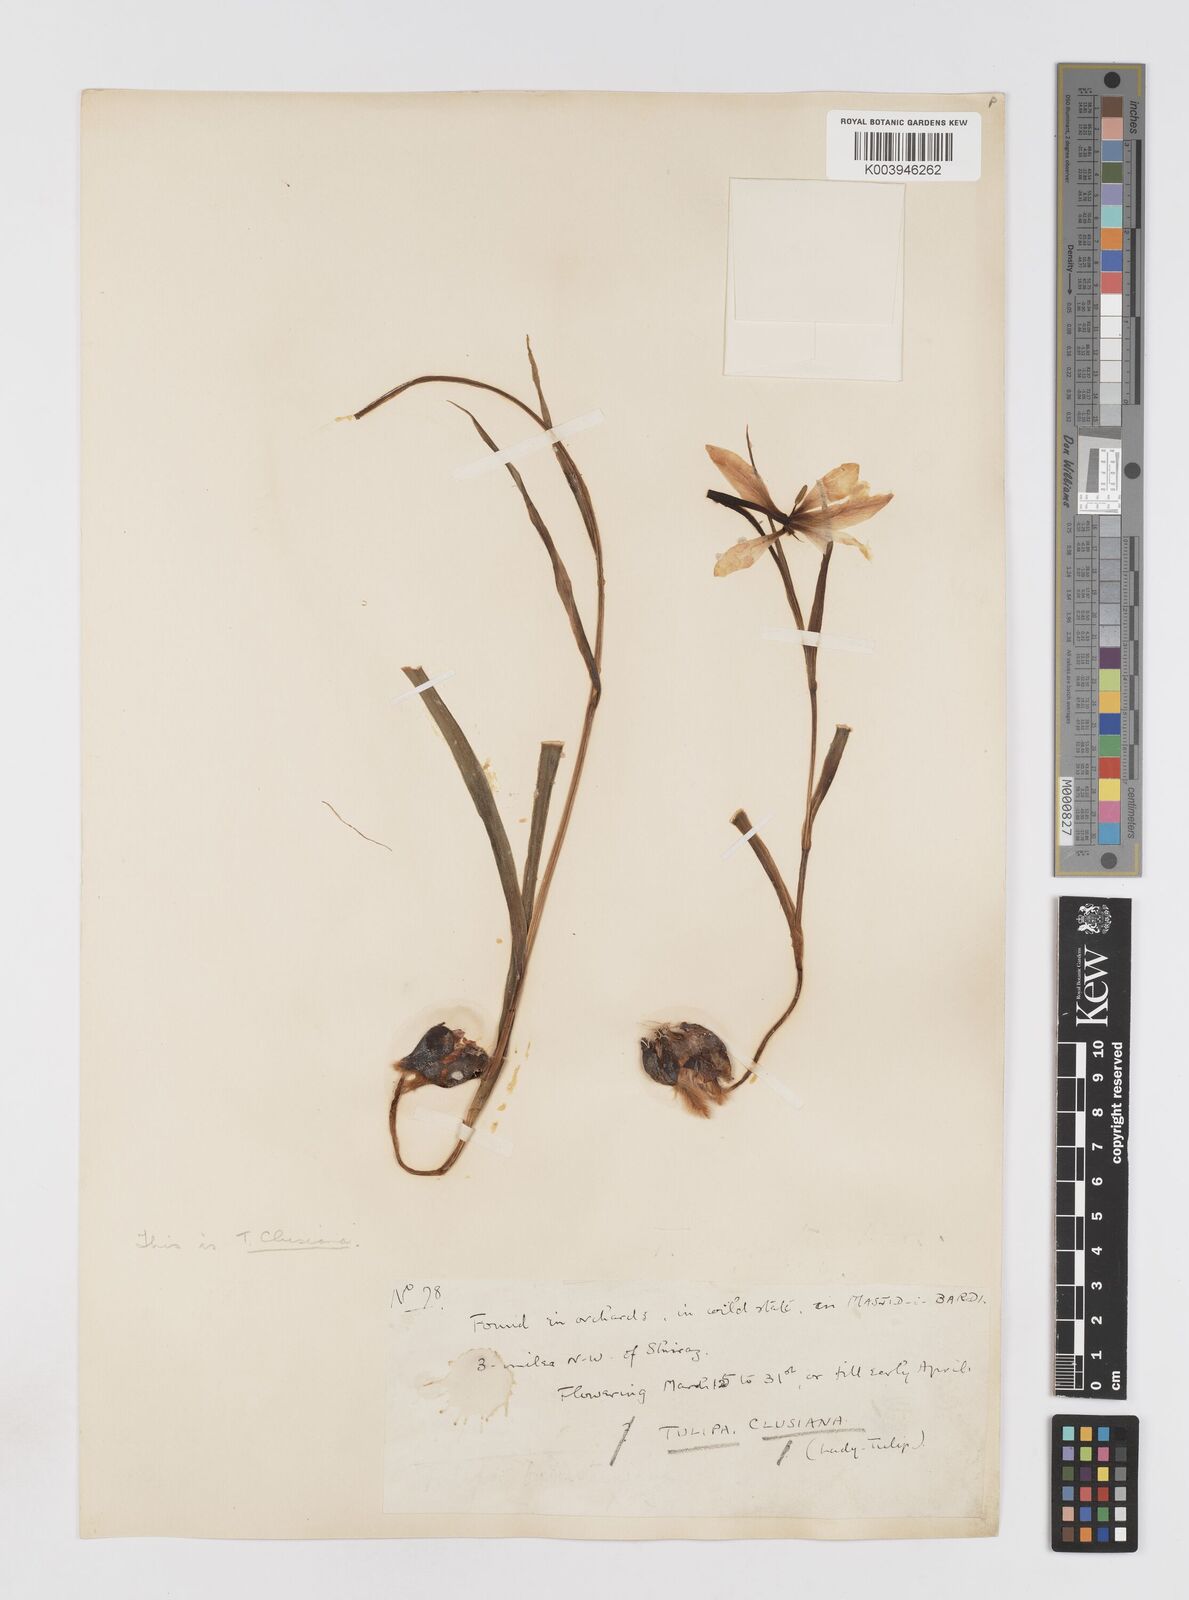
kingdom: Plantae
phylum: Tracheophyta
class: Liliopsida
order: Liliales
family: Liliaceae
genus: Tulipa
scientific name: Tulipa clusiana
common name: Lady tulip
